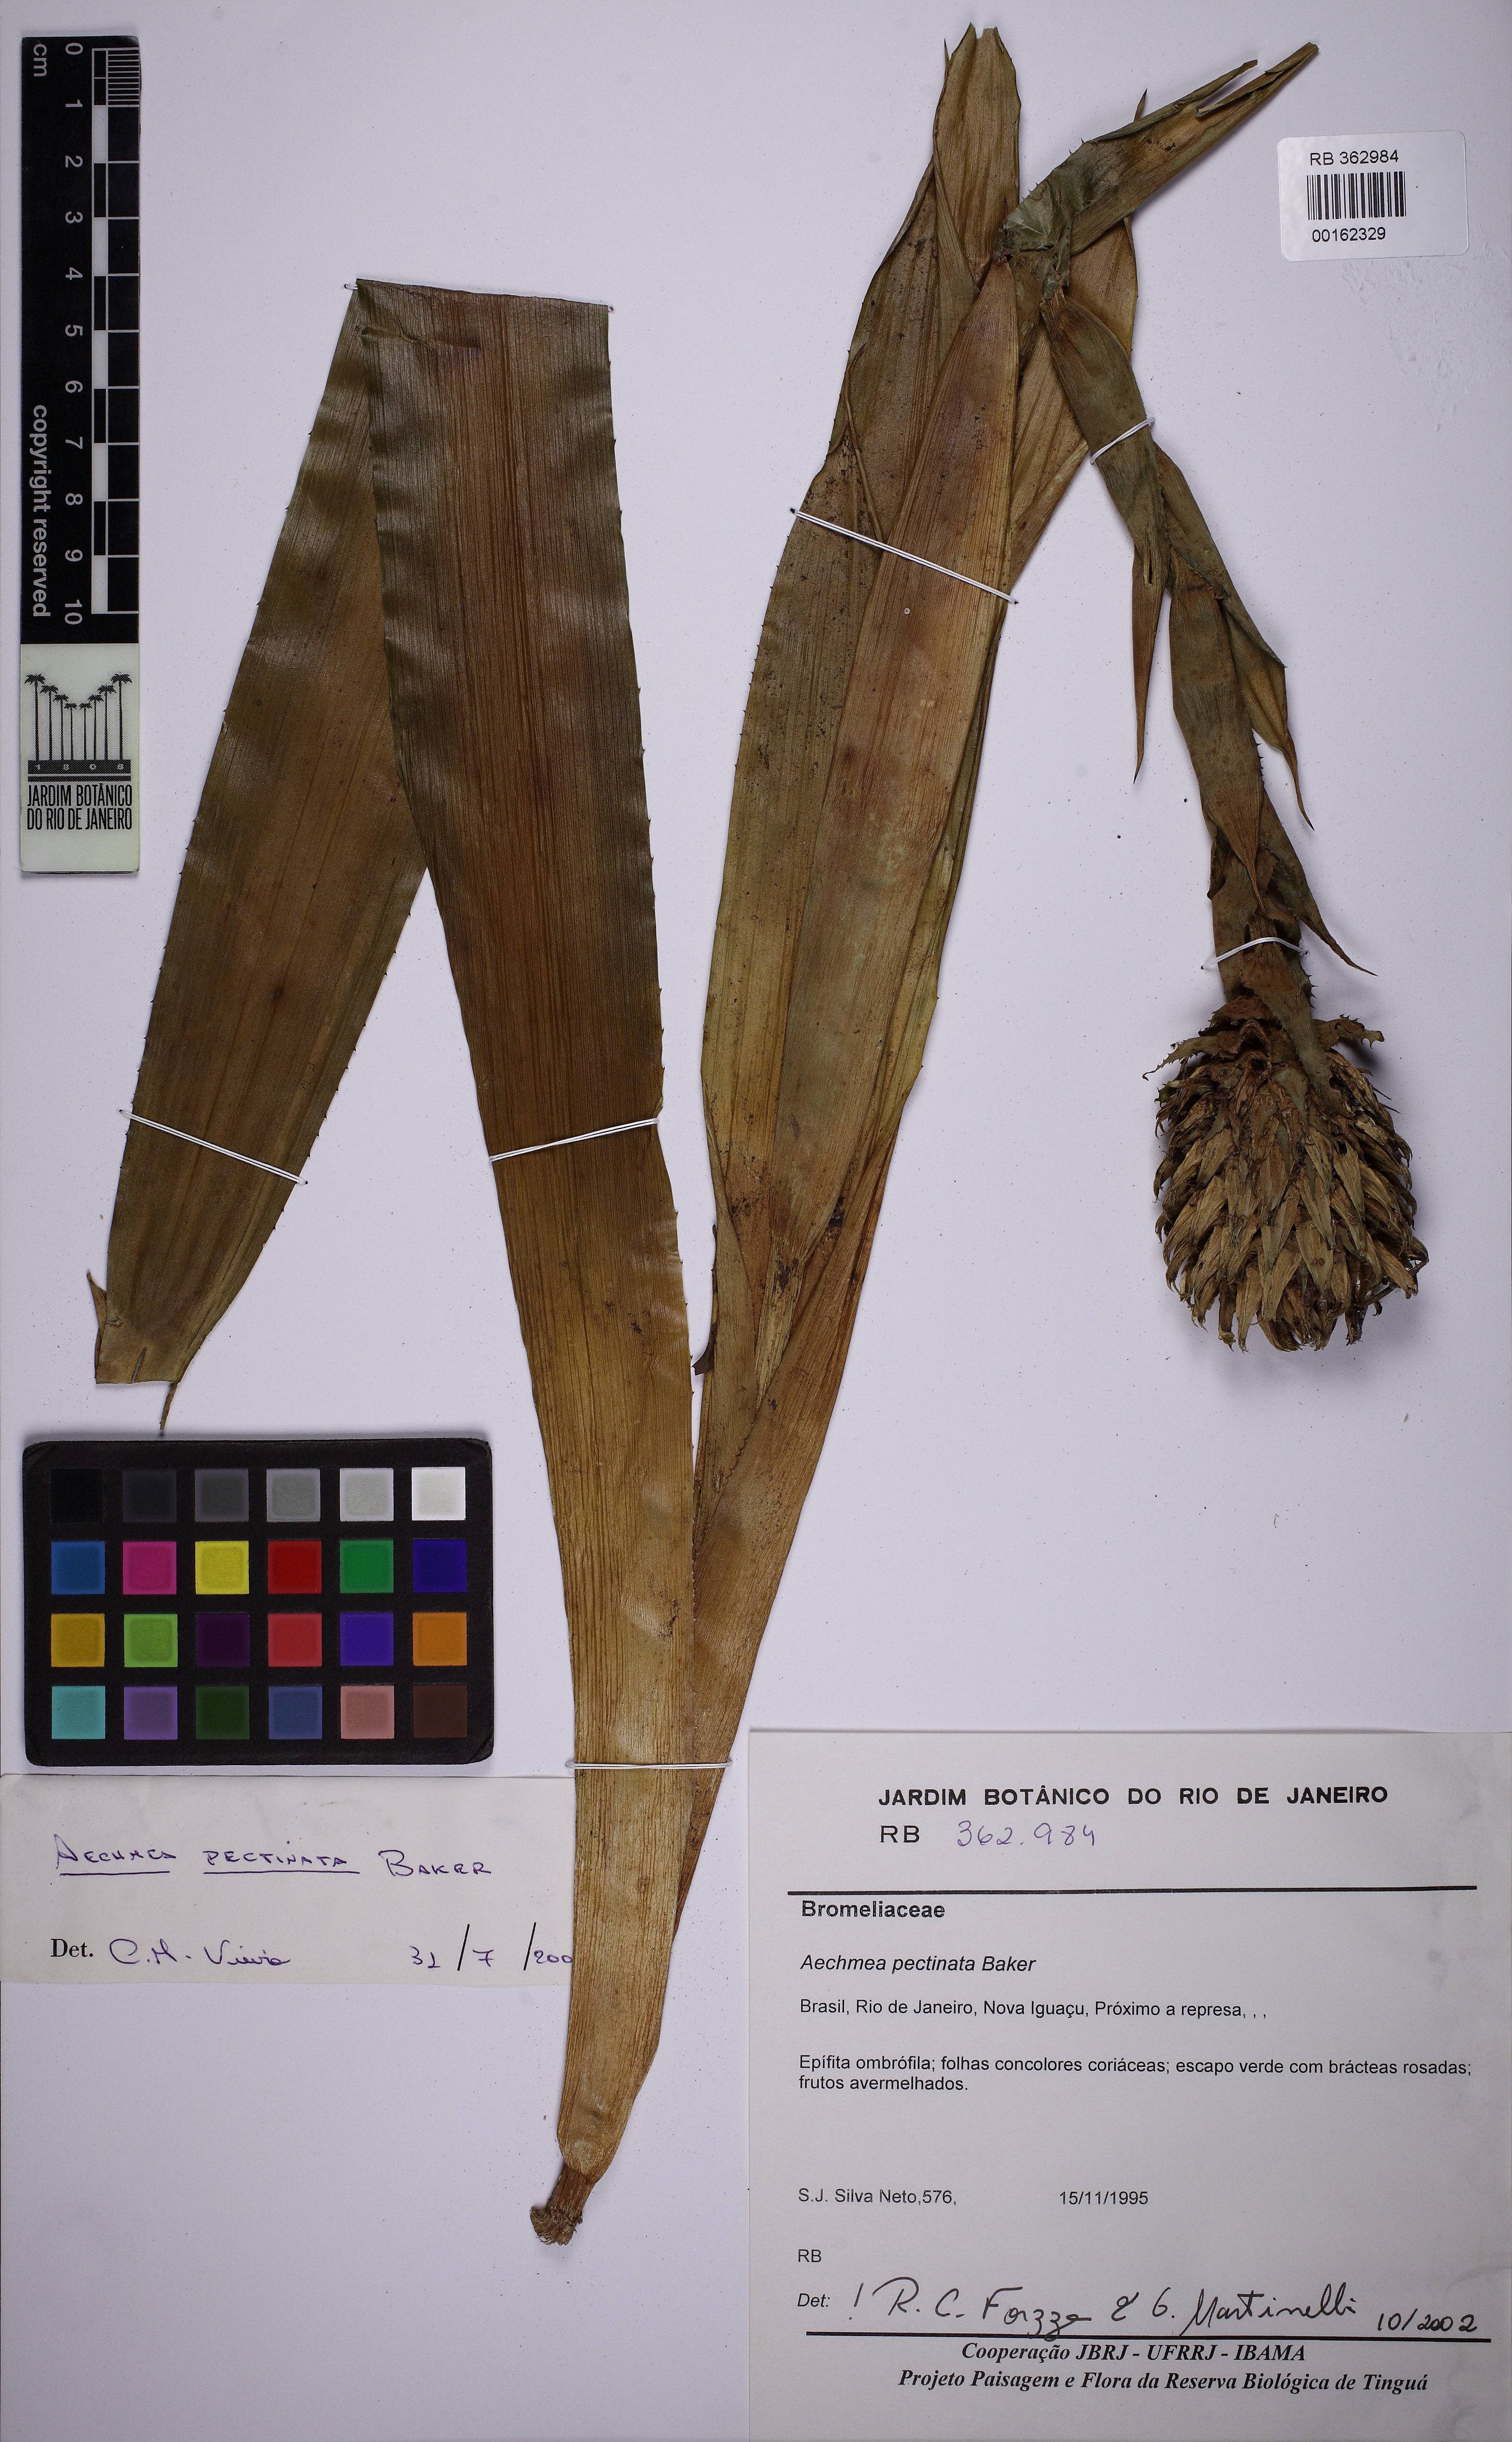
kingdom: Plantae
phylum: Tracheophyta
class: Liliopsida
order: Poales
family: Bromeliaceae
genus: Aechmea
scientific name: Aechmea pectinata
